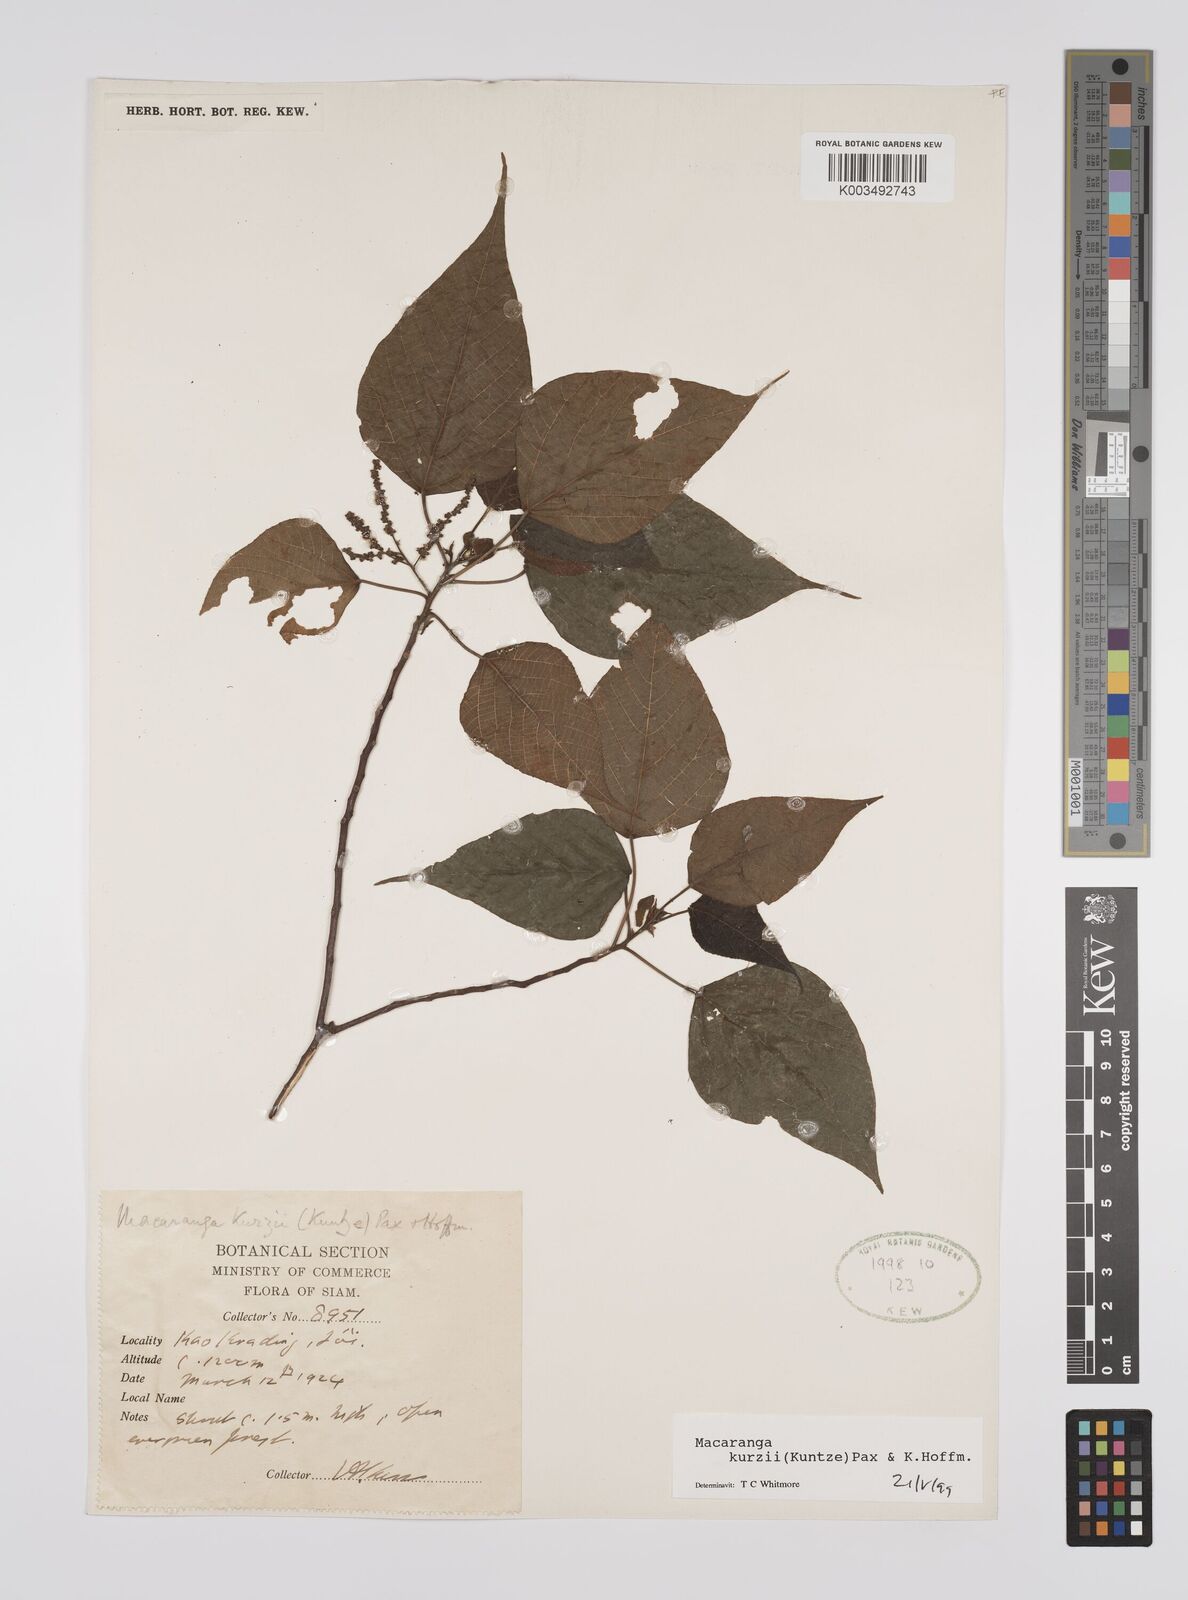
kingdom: Plantae
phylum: Tracheophyta
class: Magnoliopsida
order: Malpighiales
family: Euphorbiaceae
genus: Macaranga
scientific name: Macaranga kurzii
